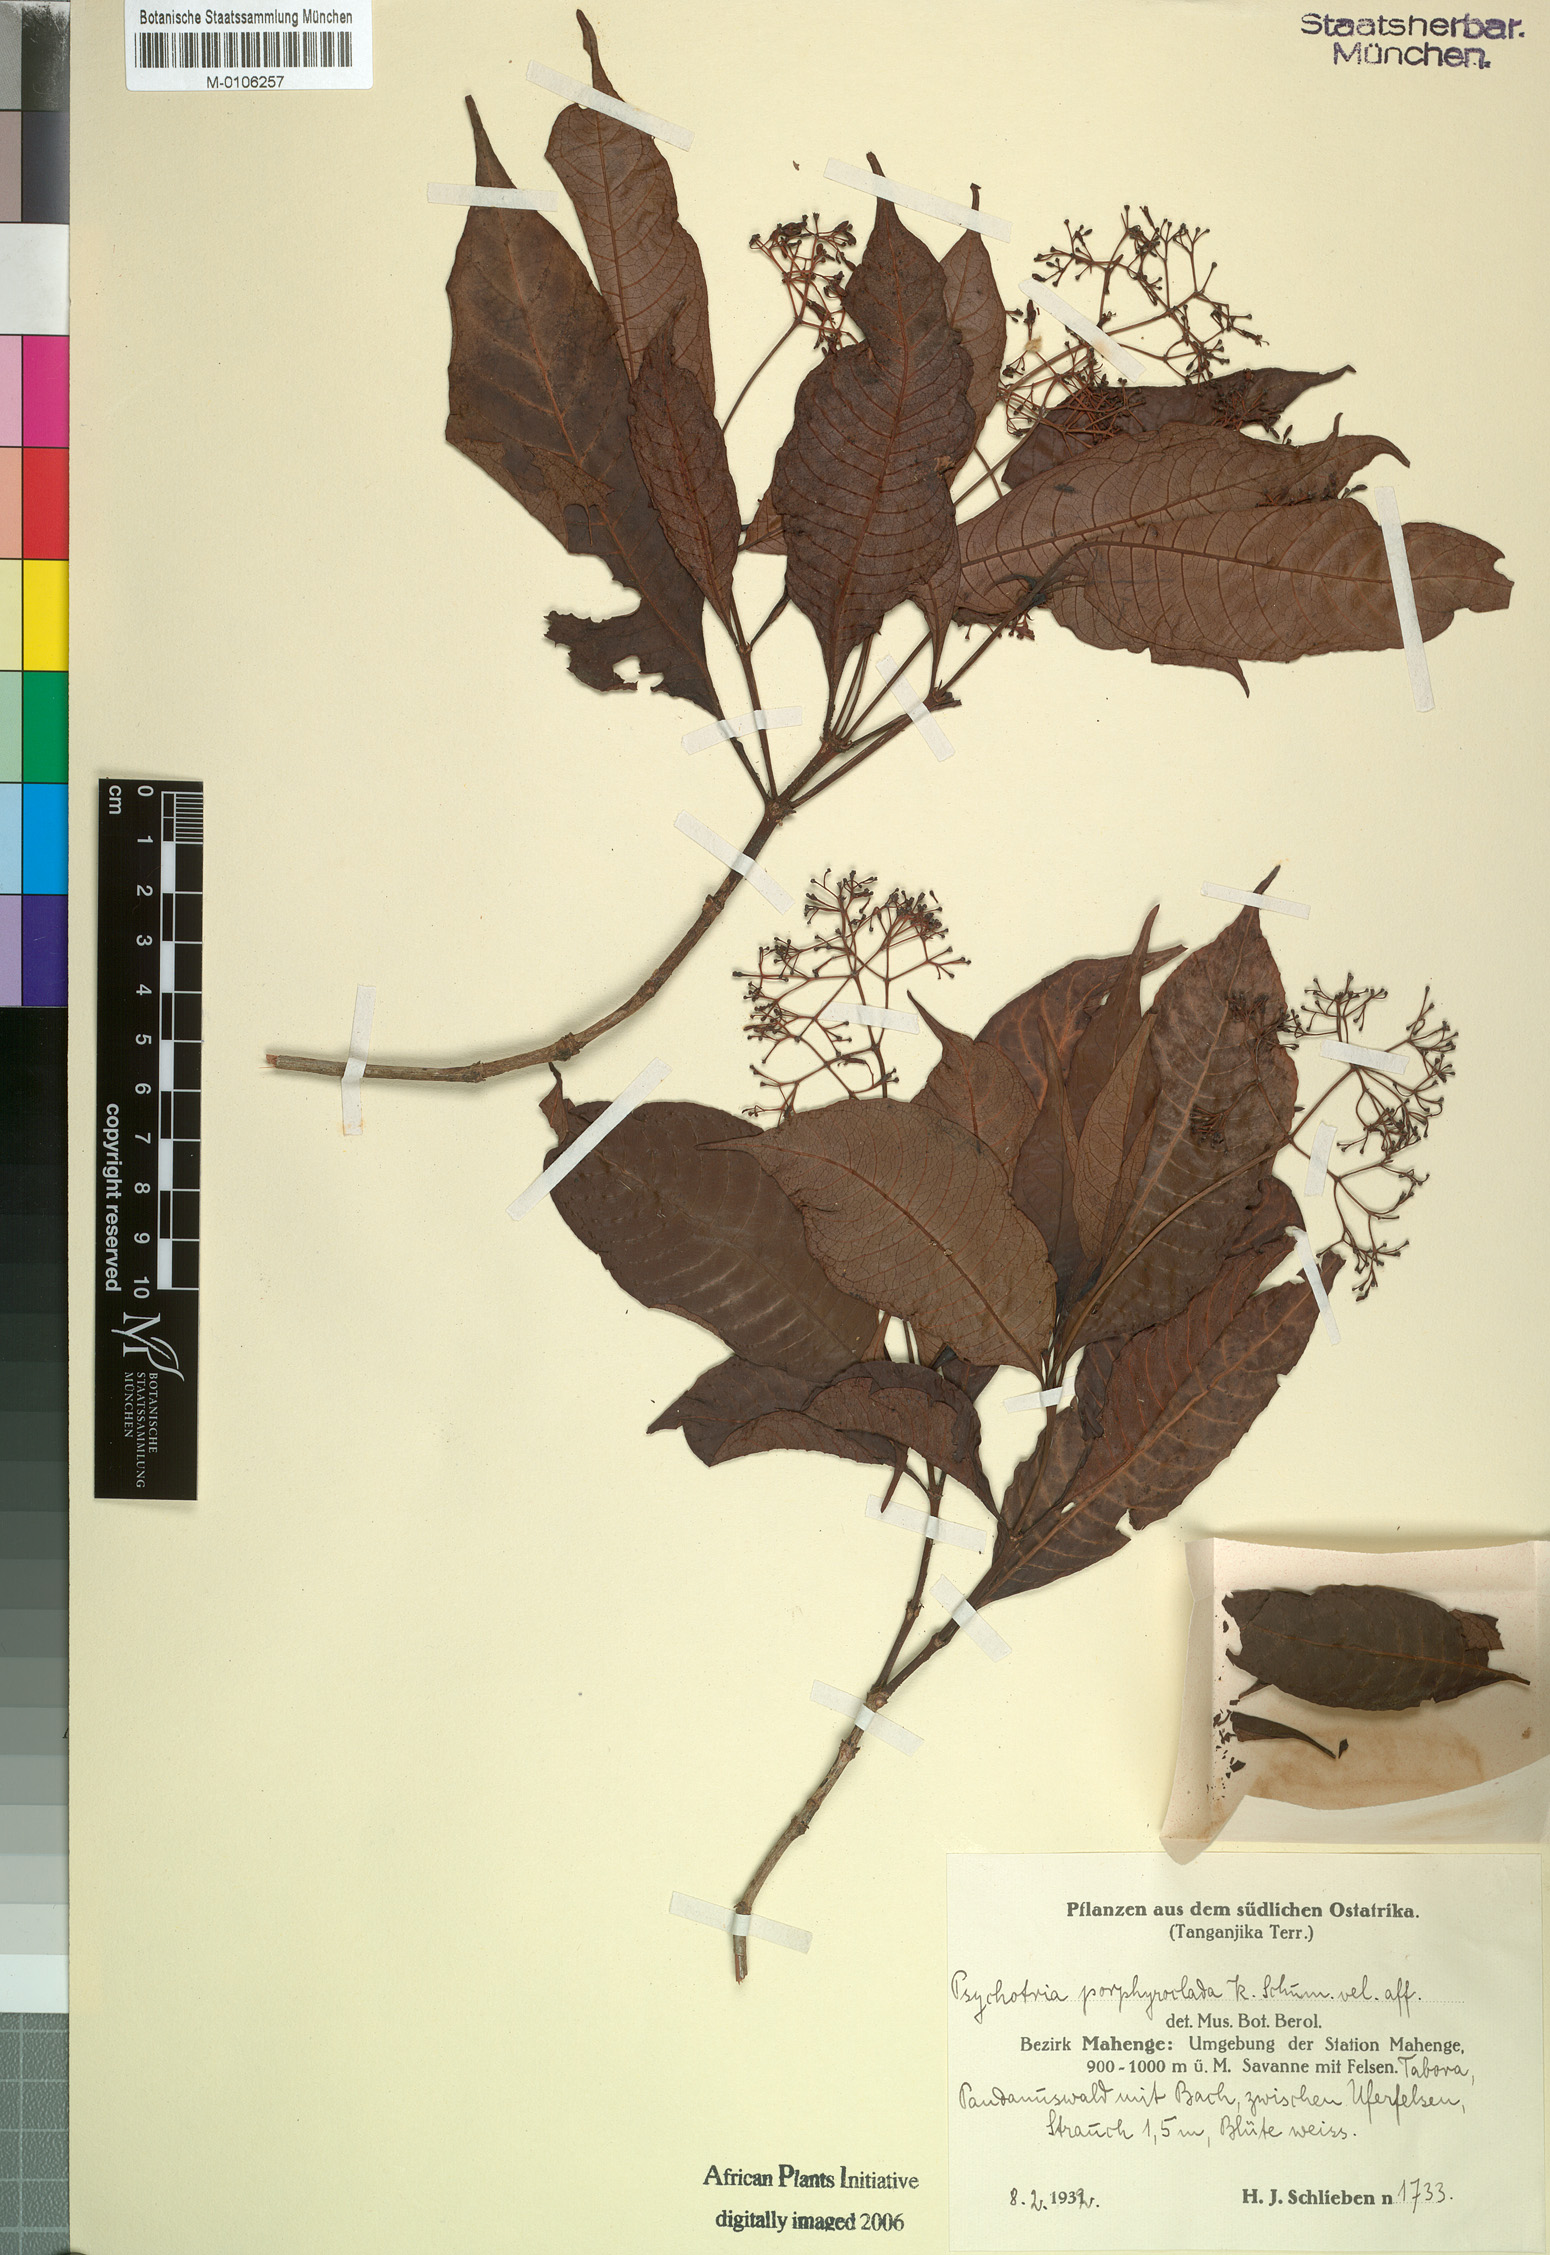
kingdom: Plantae
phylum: Tracheophyta
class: Magnoliopsida
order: Gentianales
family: Rubiaceae
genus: Psychotria
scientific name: Psychotria schliebenii
